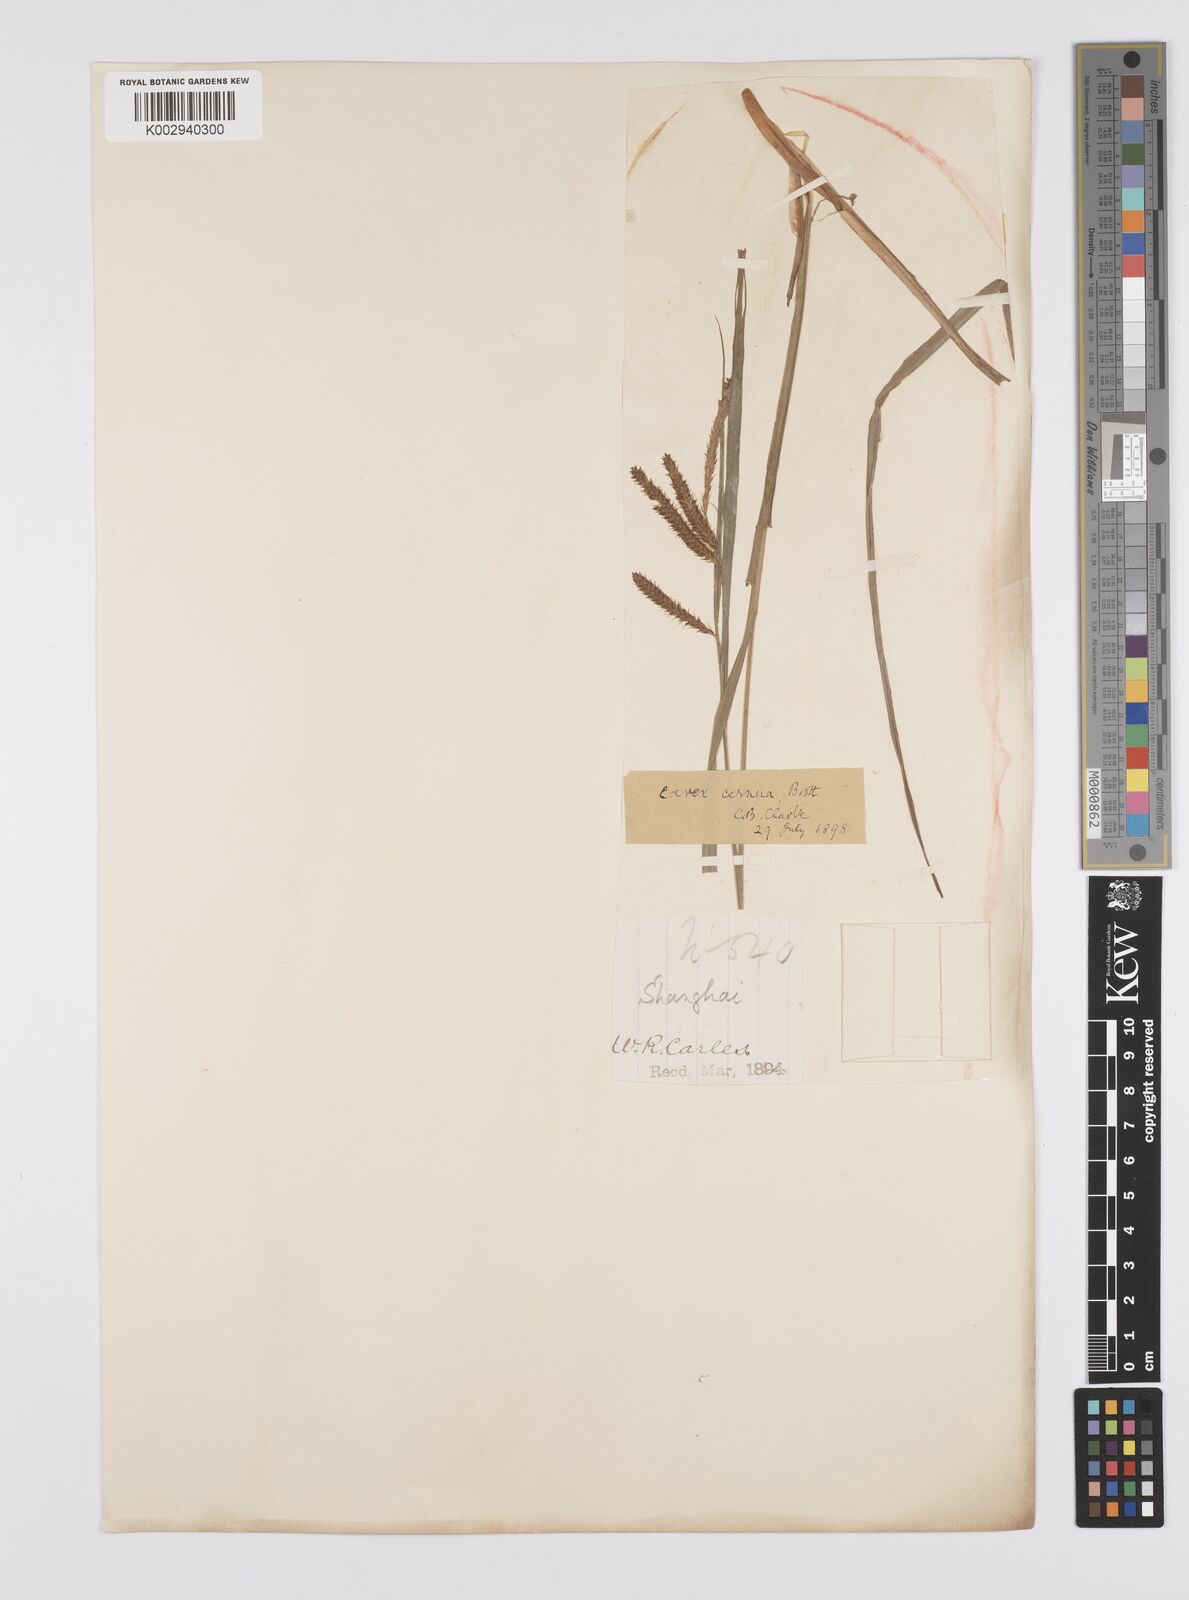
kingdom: Plantae
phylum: Tracheophyta
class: Liliopsida
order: Poales
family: Cyperaceae
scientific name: Cyperaceae
